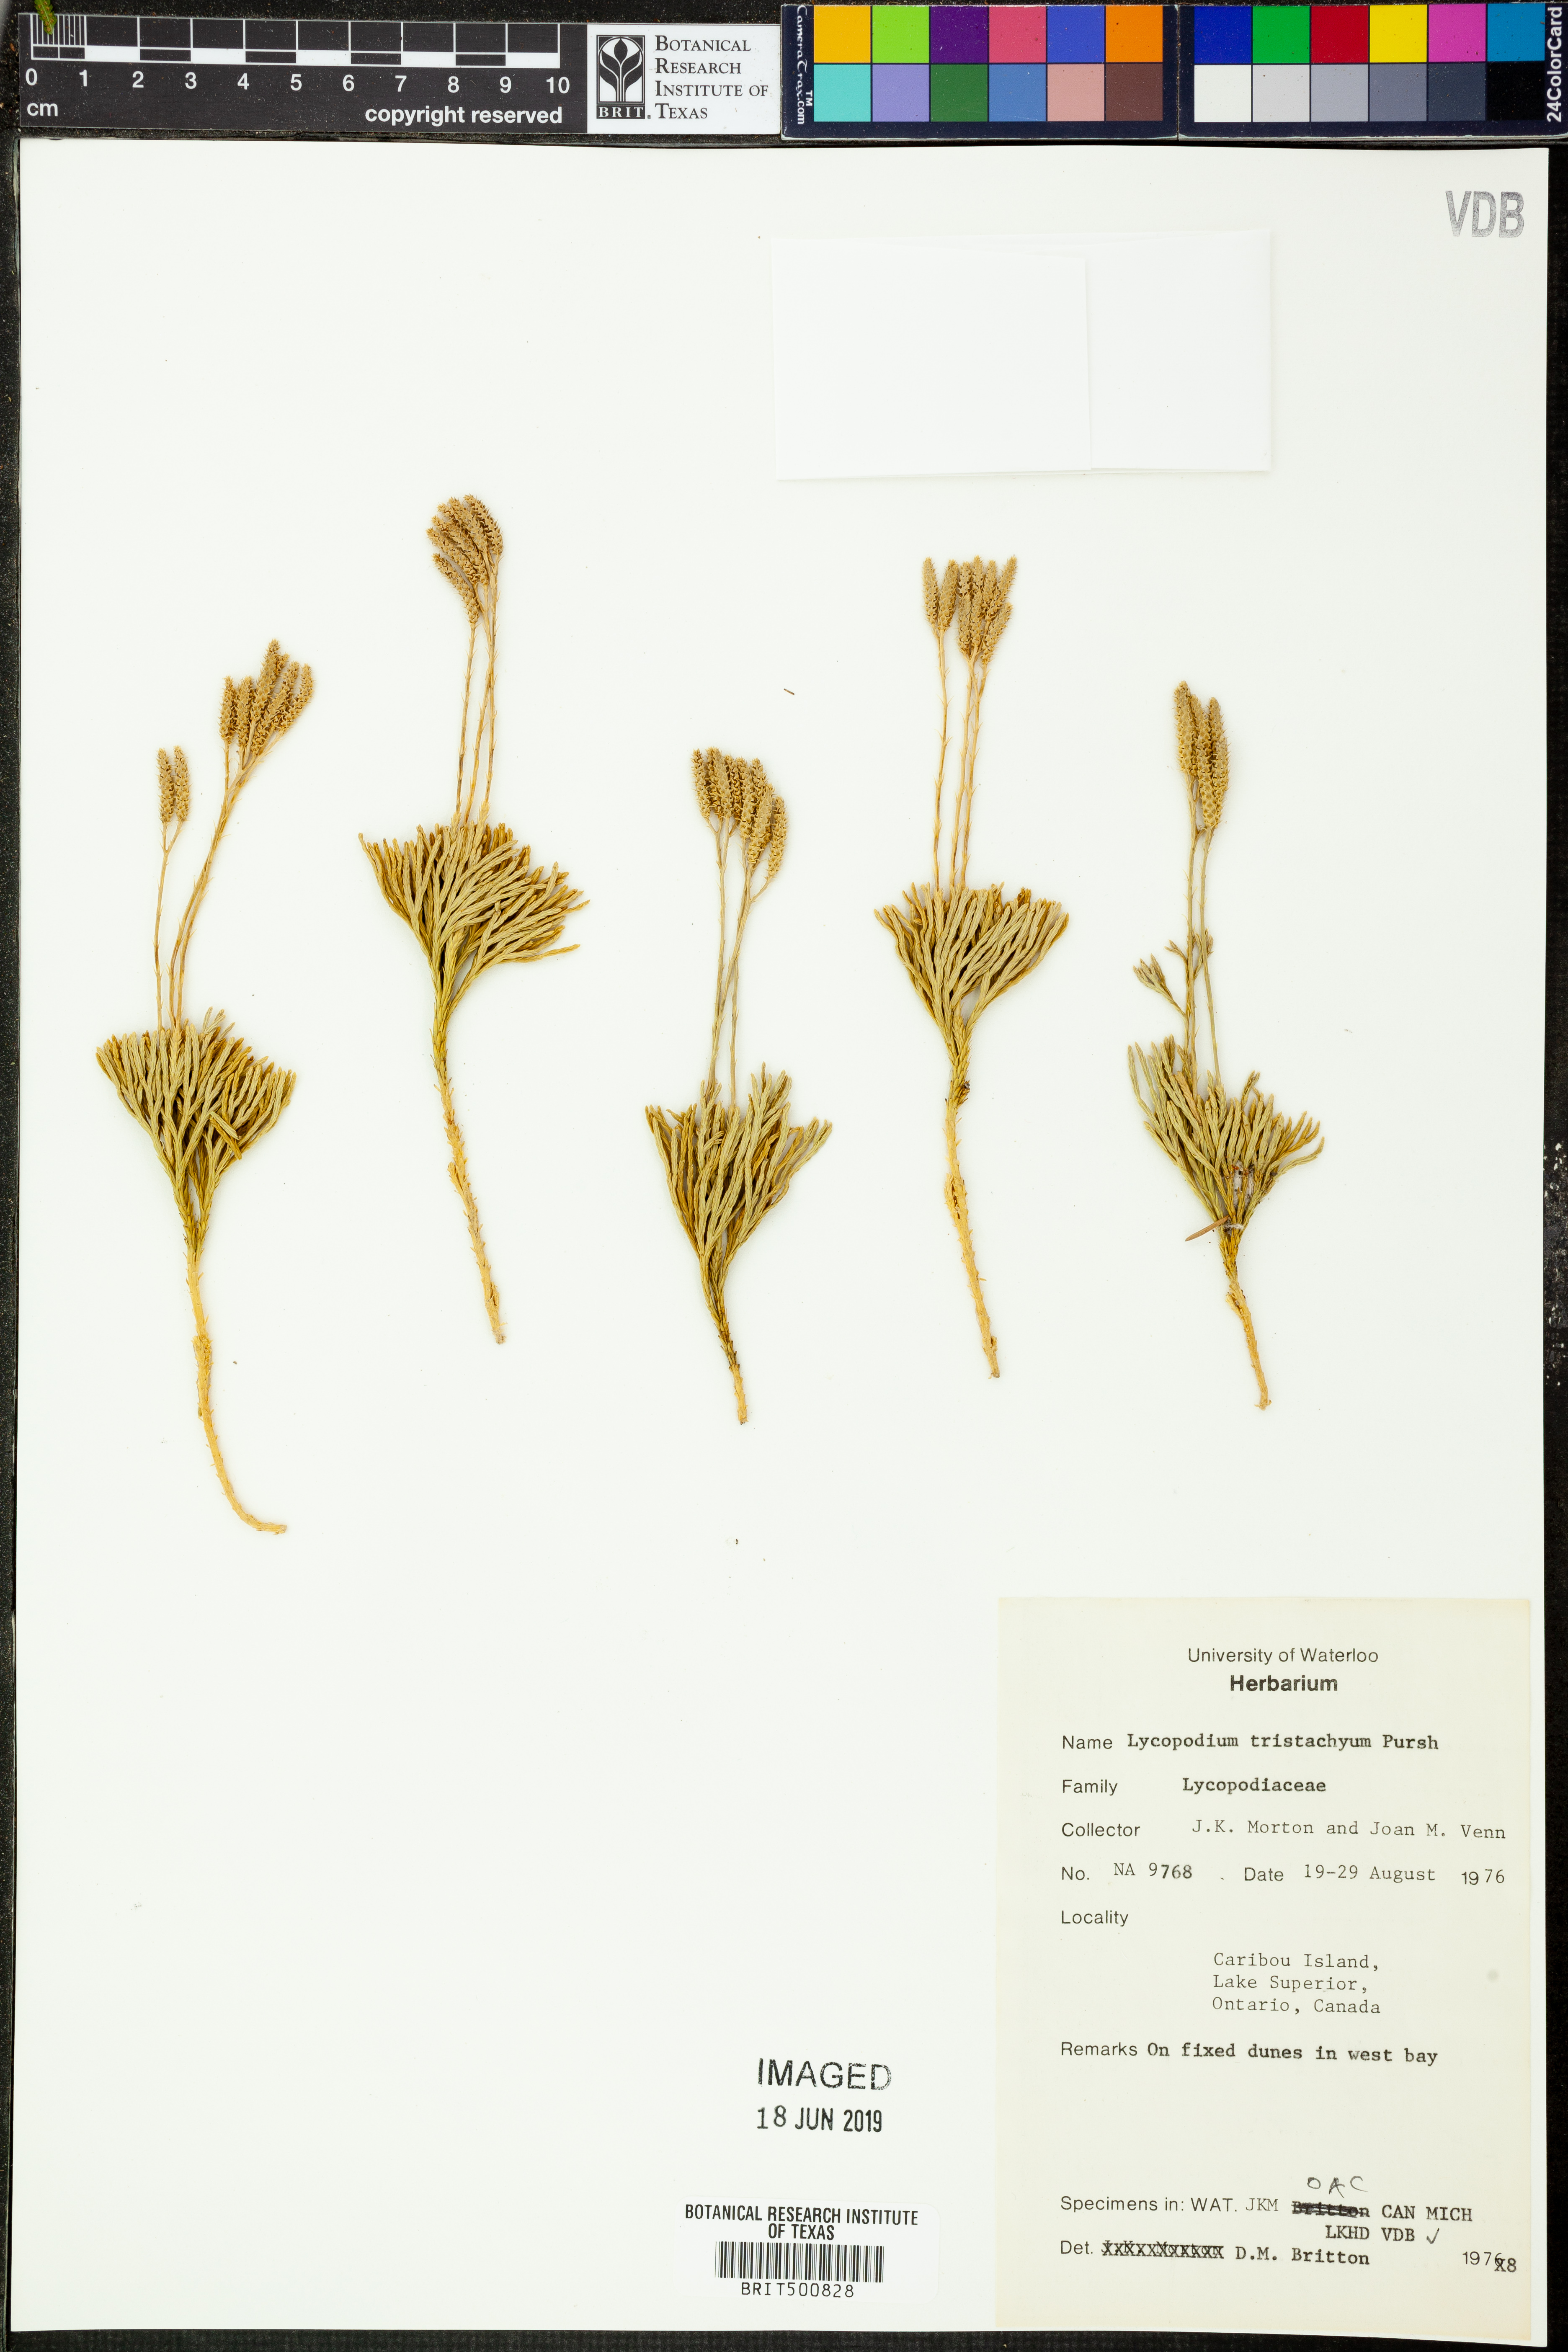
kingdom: Plantae
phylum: Tracheophyta
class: Lycopodiopsida
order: Lycopodiales
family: Lycopodiaceae
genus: Diphasiastrum
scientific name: Diphasiastrum tristachyum
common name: Blue ground-cedar
